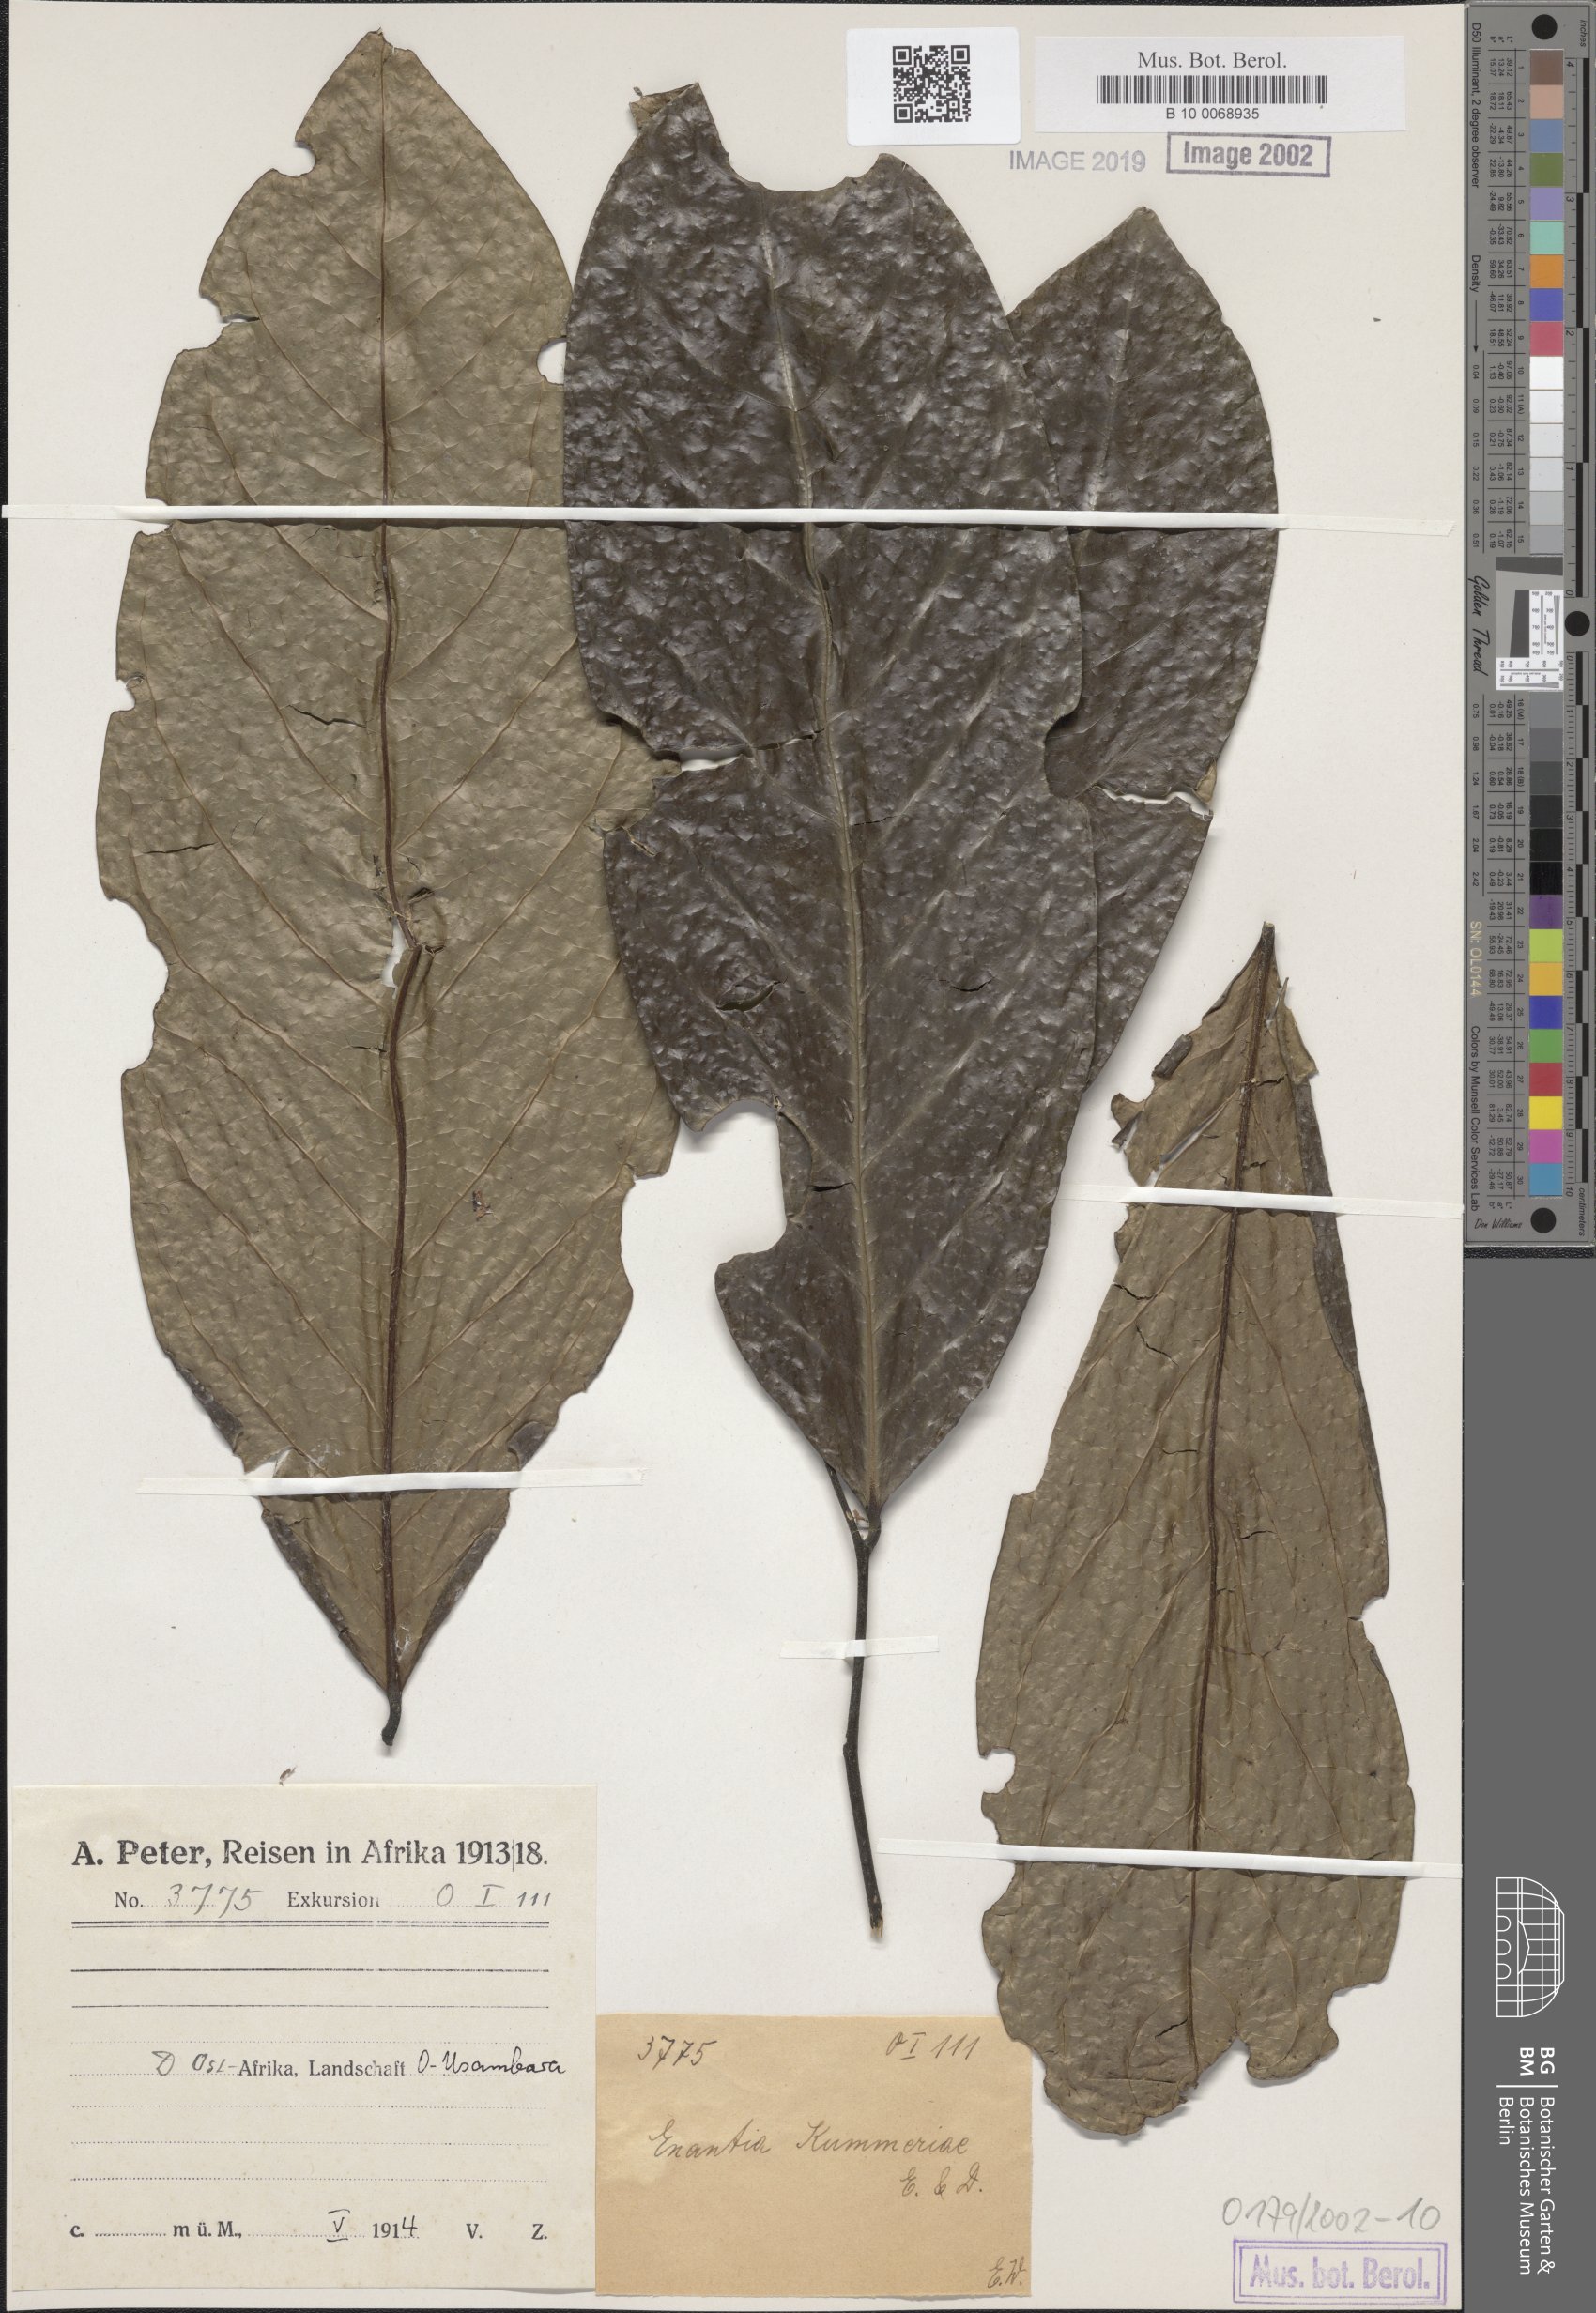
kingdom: Plantae
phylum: Tracheophyta
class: Magnoliopsida
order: Magnoliales
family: Annonaceae
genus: Annickia
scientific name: Annickia kummerae
